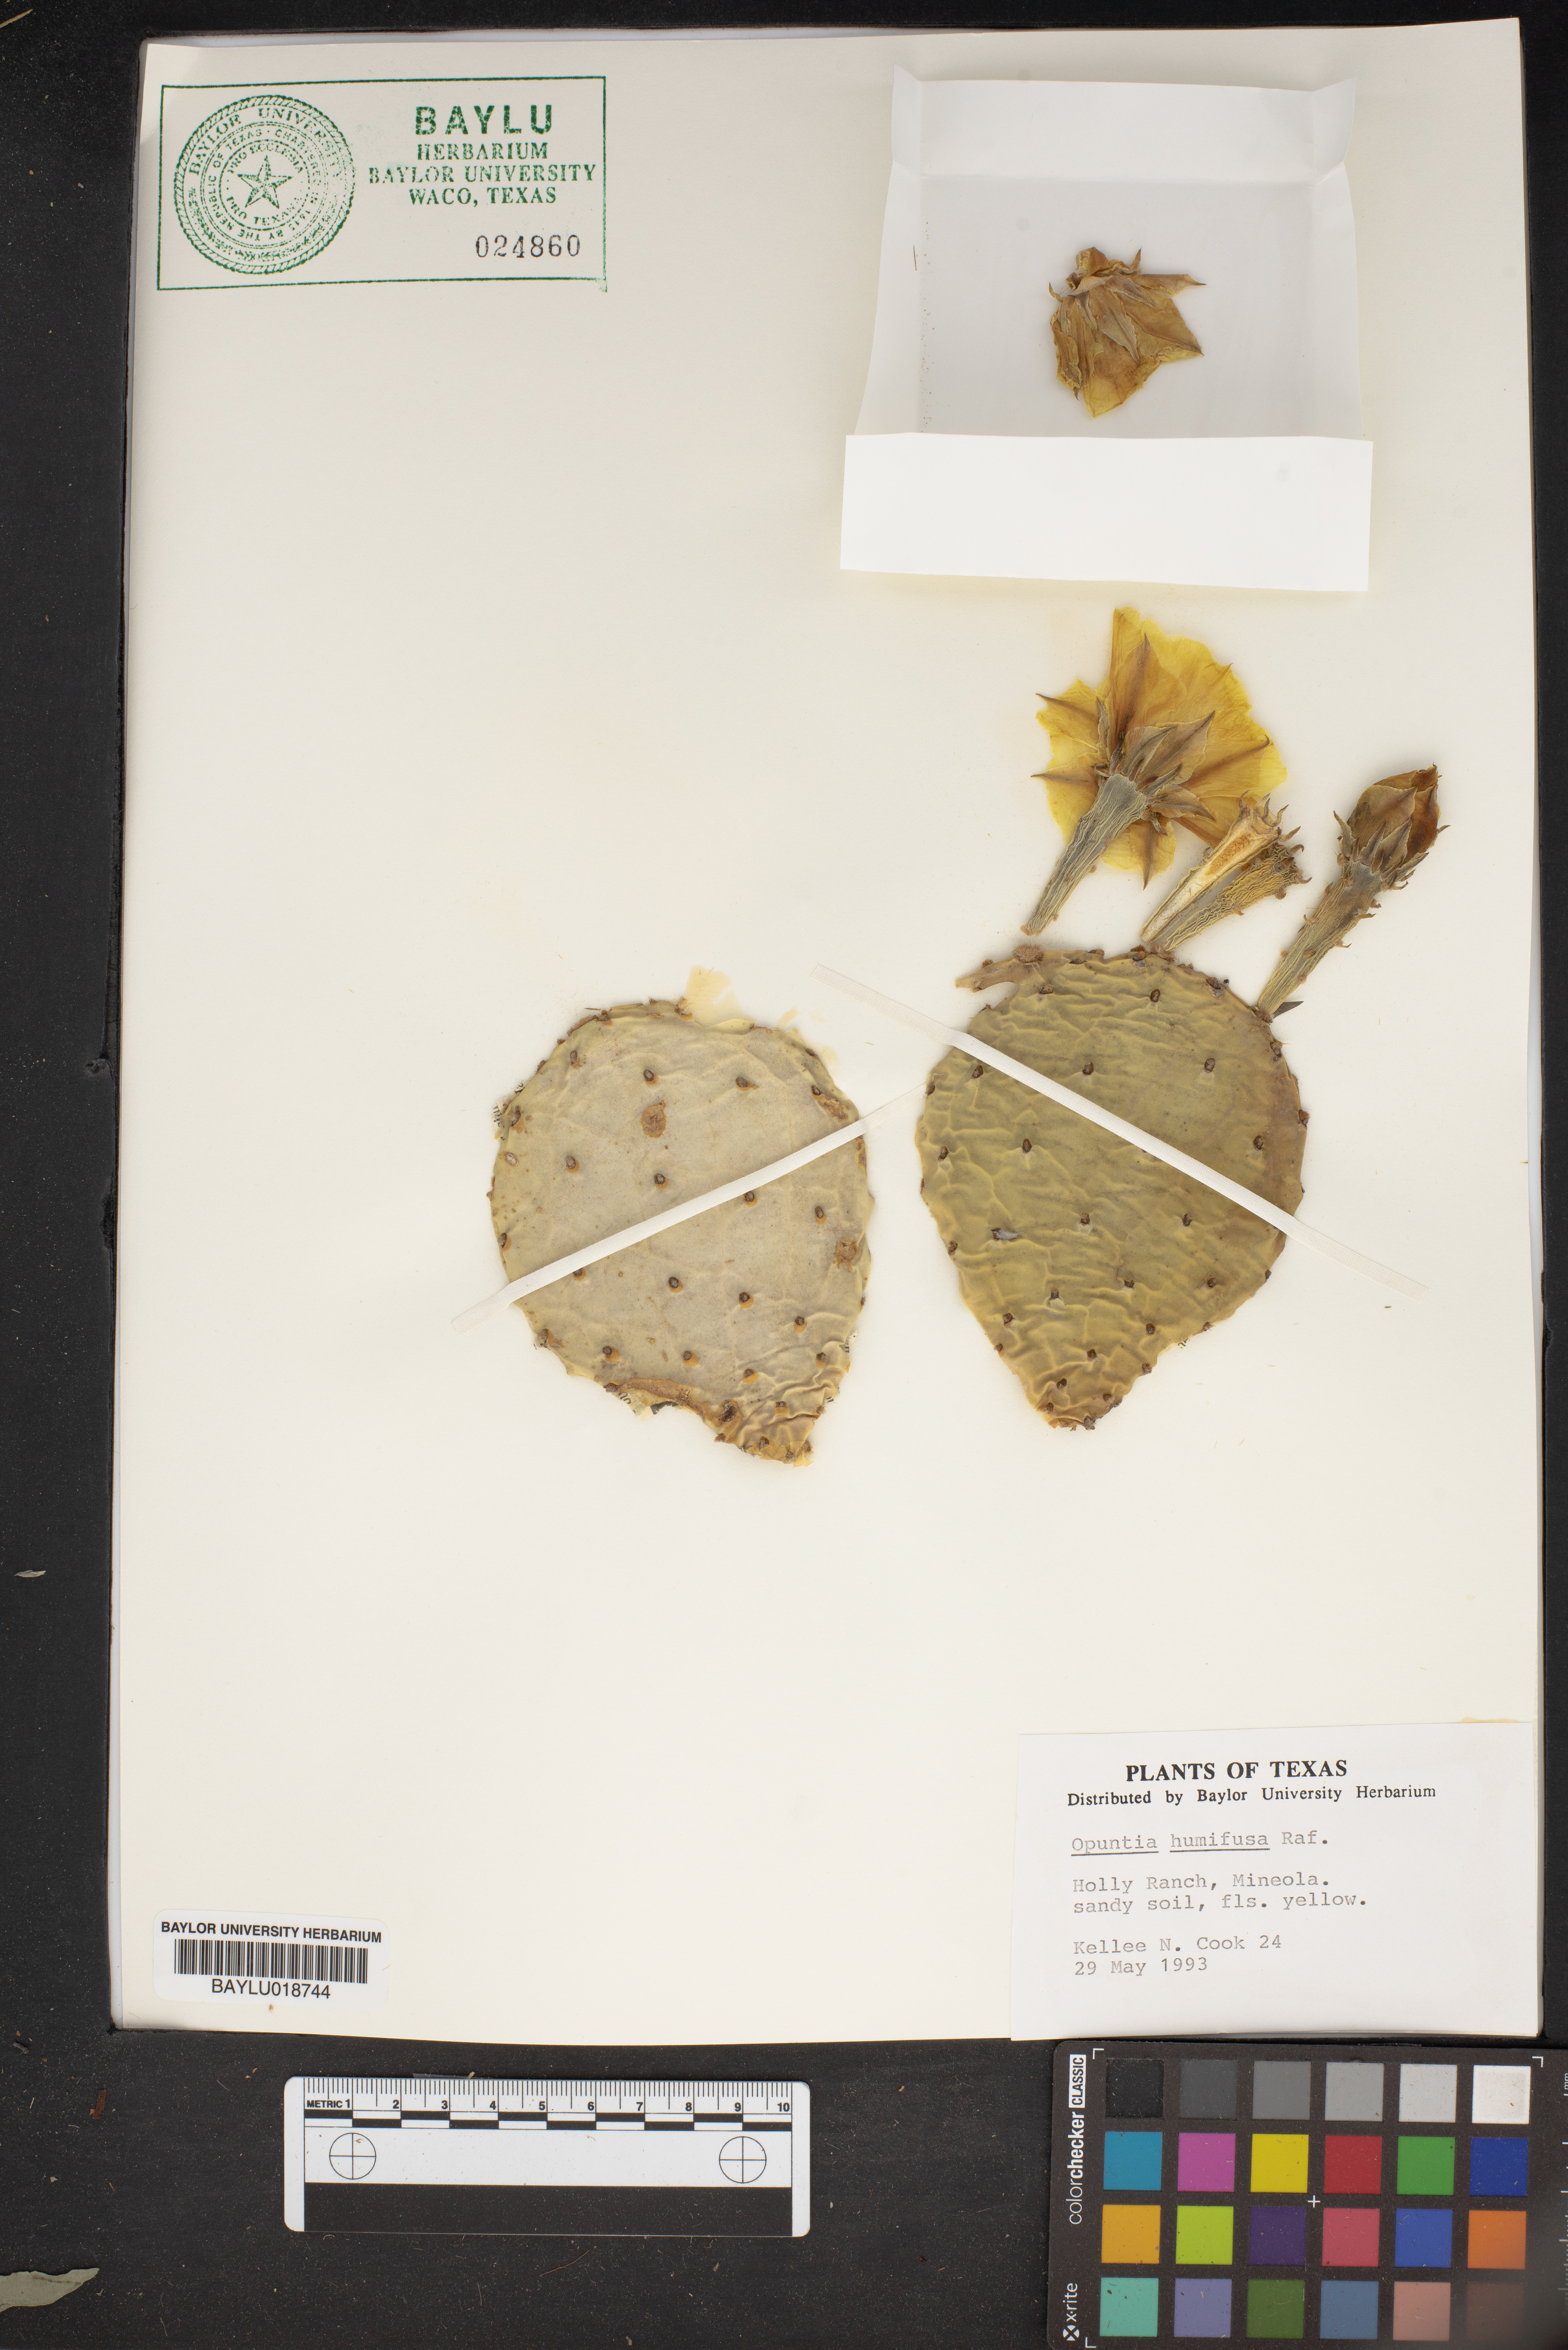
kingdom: Plantae
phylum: Tracheophyta
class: Magnoliopsida
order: Caryophyllales
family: Cactaceae
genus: Opuntia
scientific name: Opuntia humifusa
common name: Eastern prickly-pear
